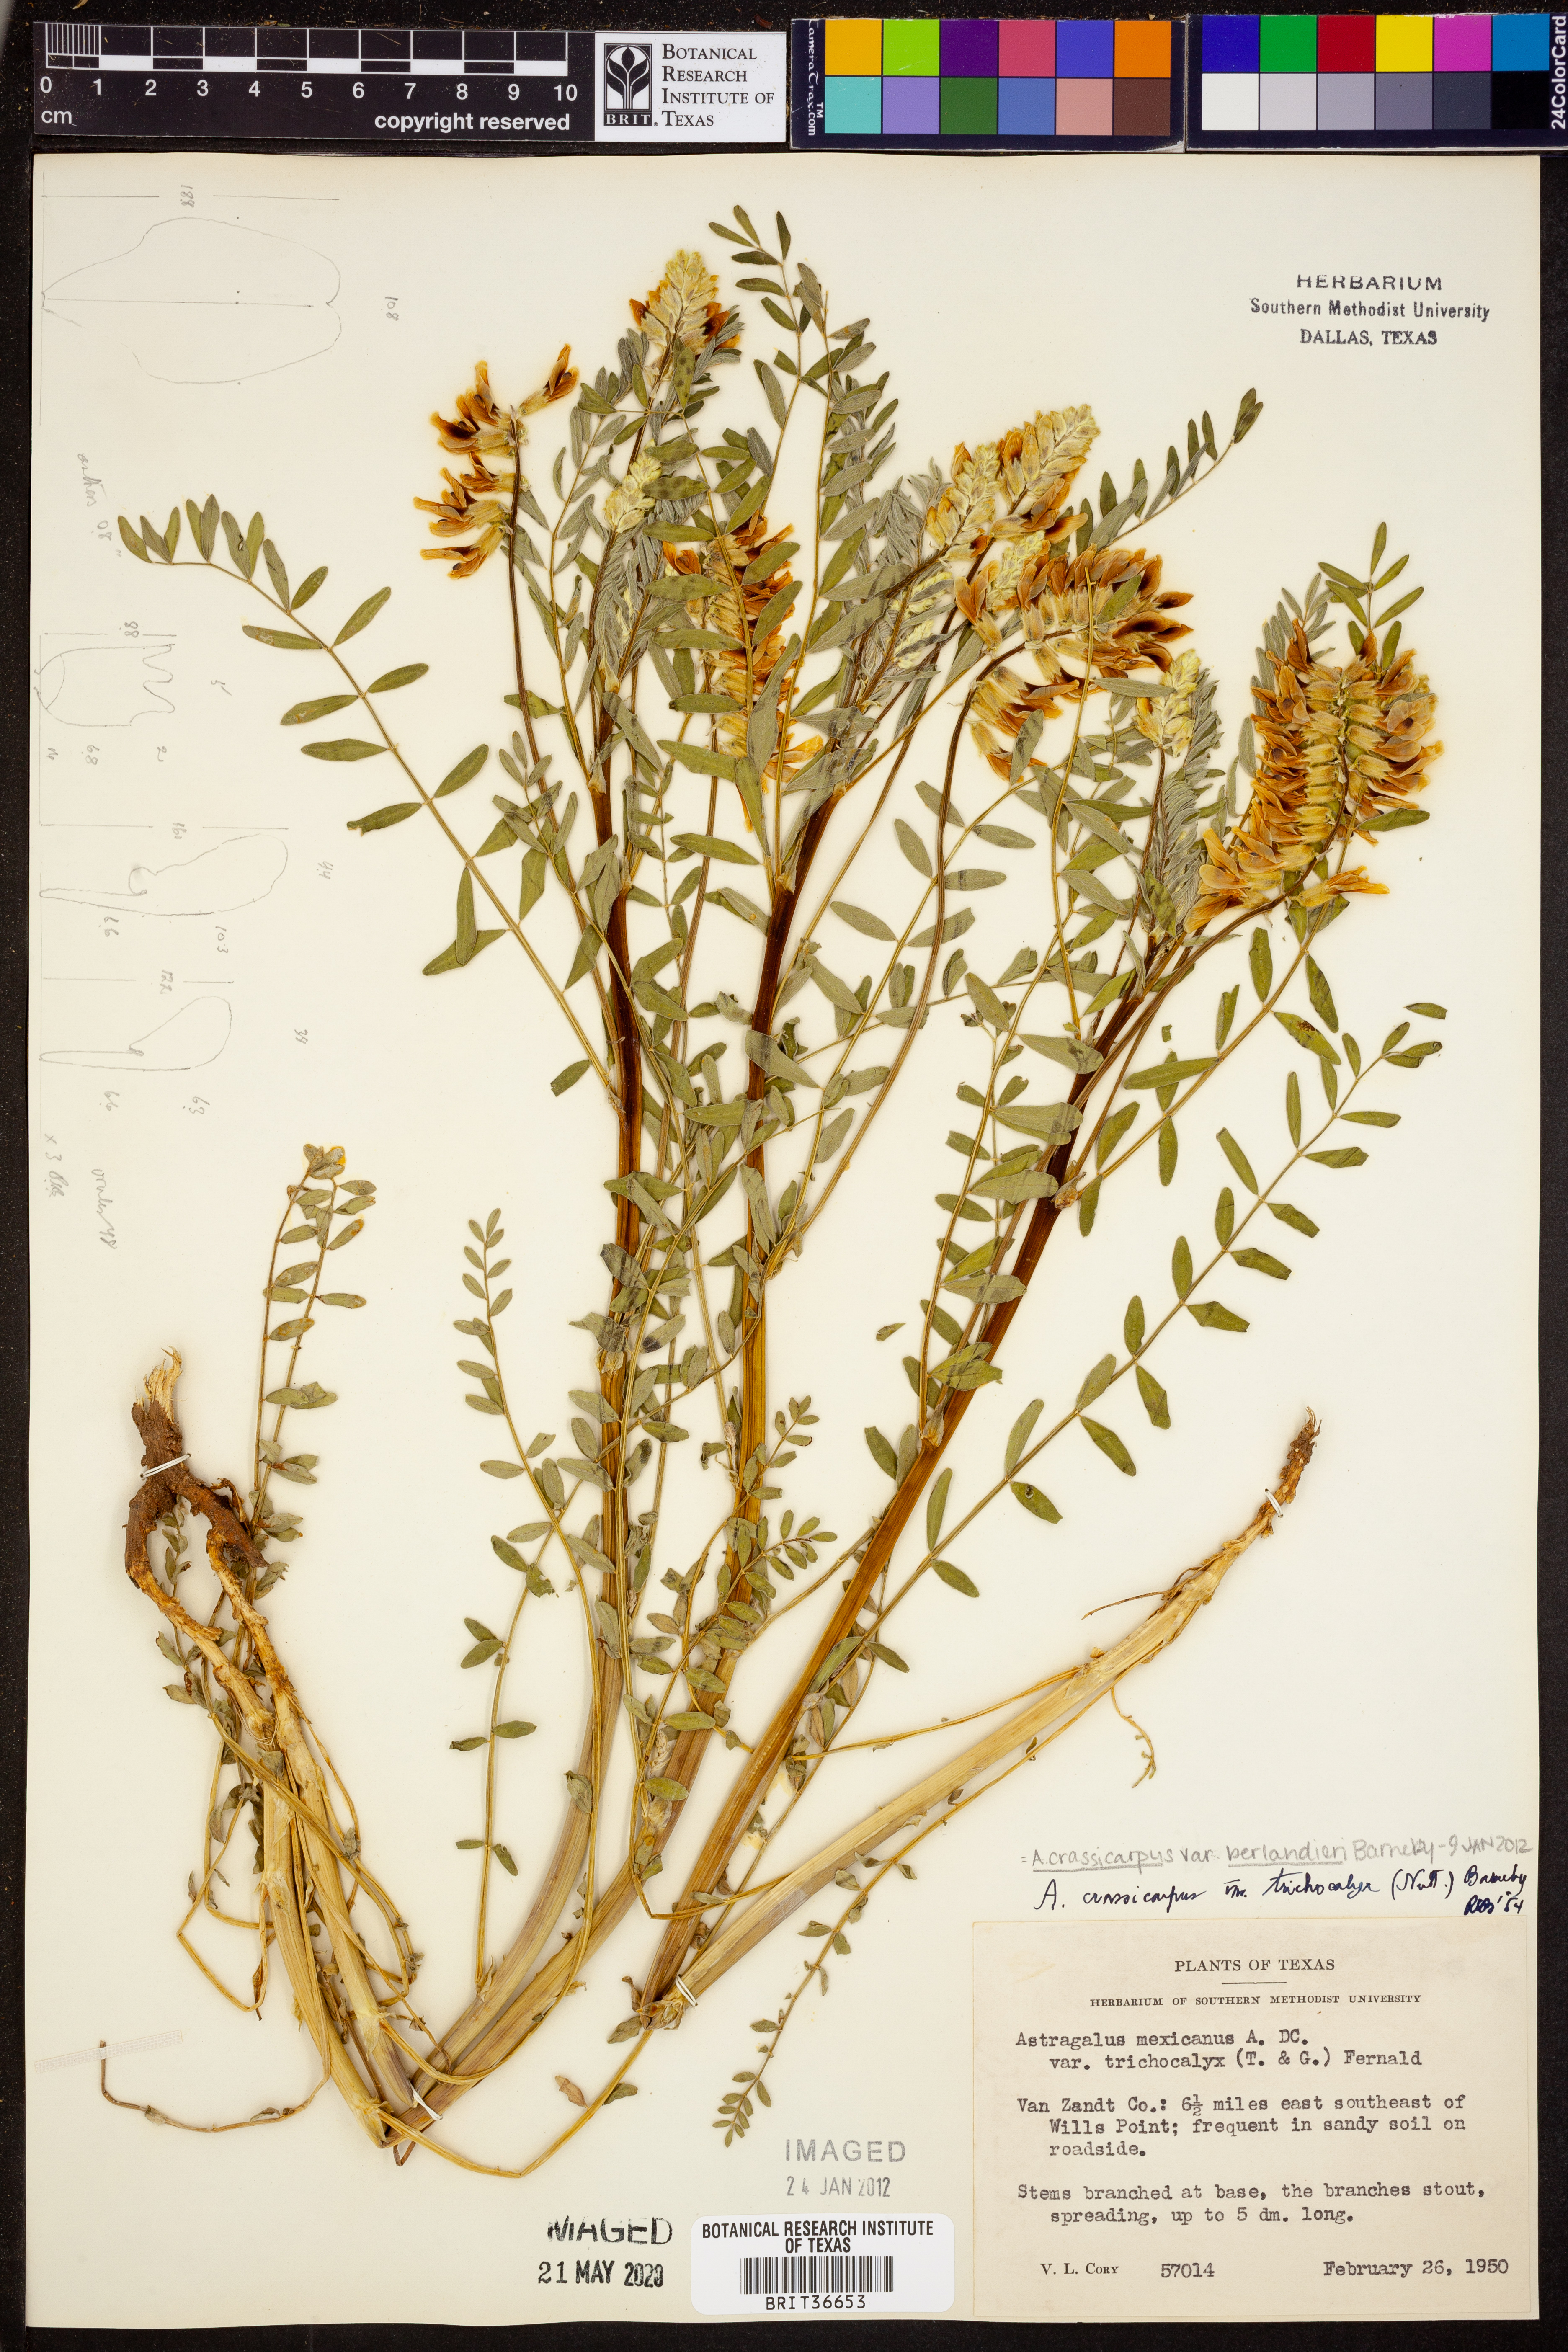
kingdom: Plantae
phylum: Tracheophyta
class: Magnoliopsida
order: Fabales
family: Fabaceae
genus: Astragalus
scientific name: Astragalus crassicarpus
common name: Ground-plum milk-vetch
